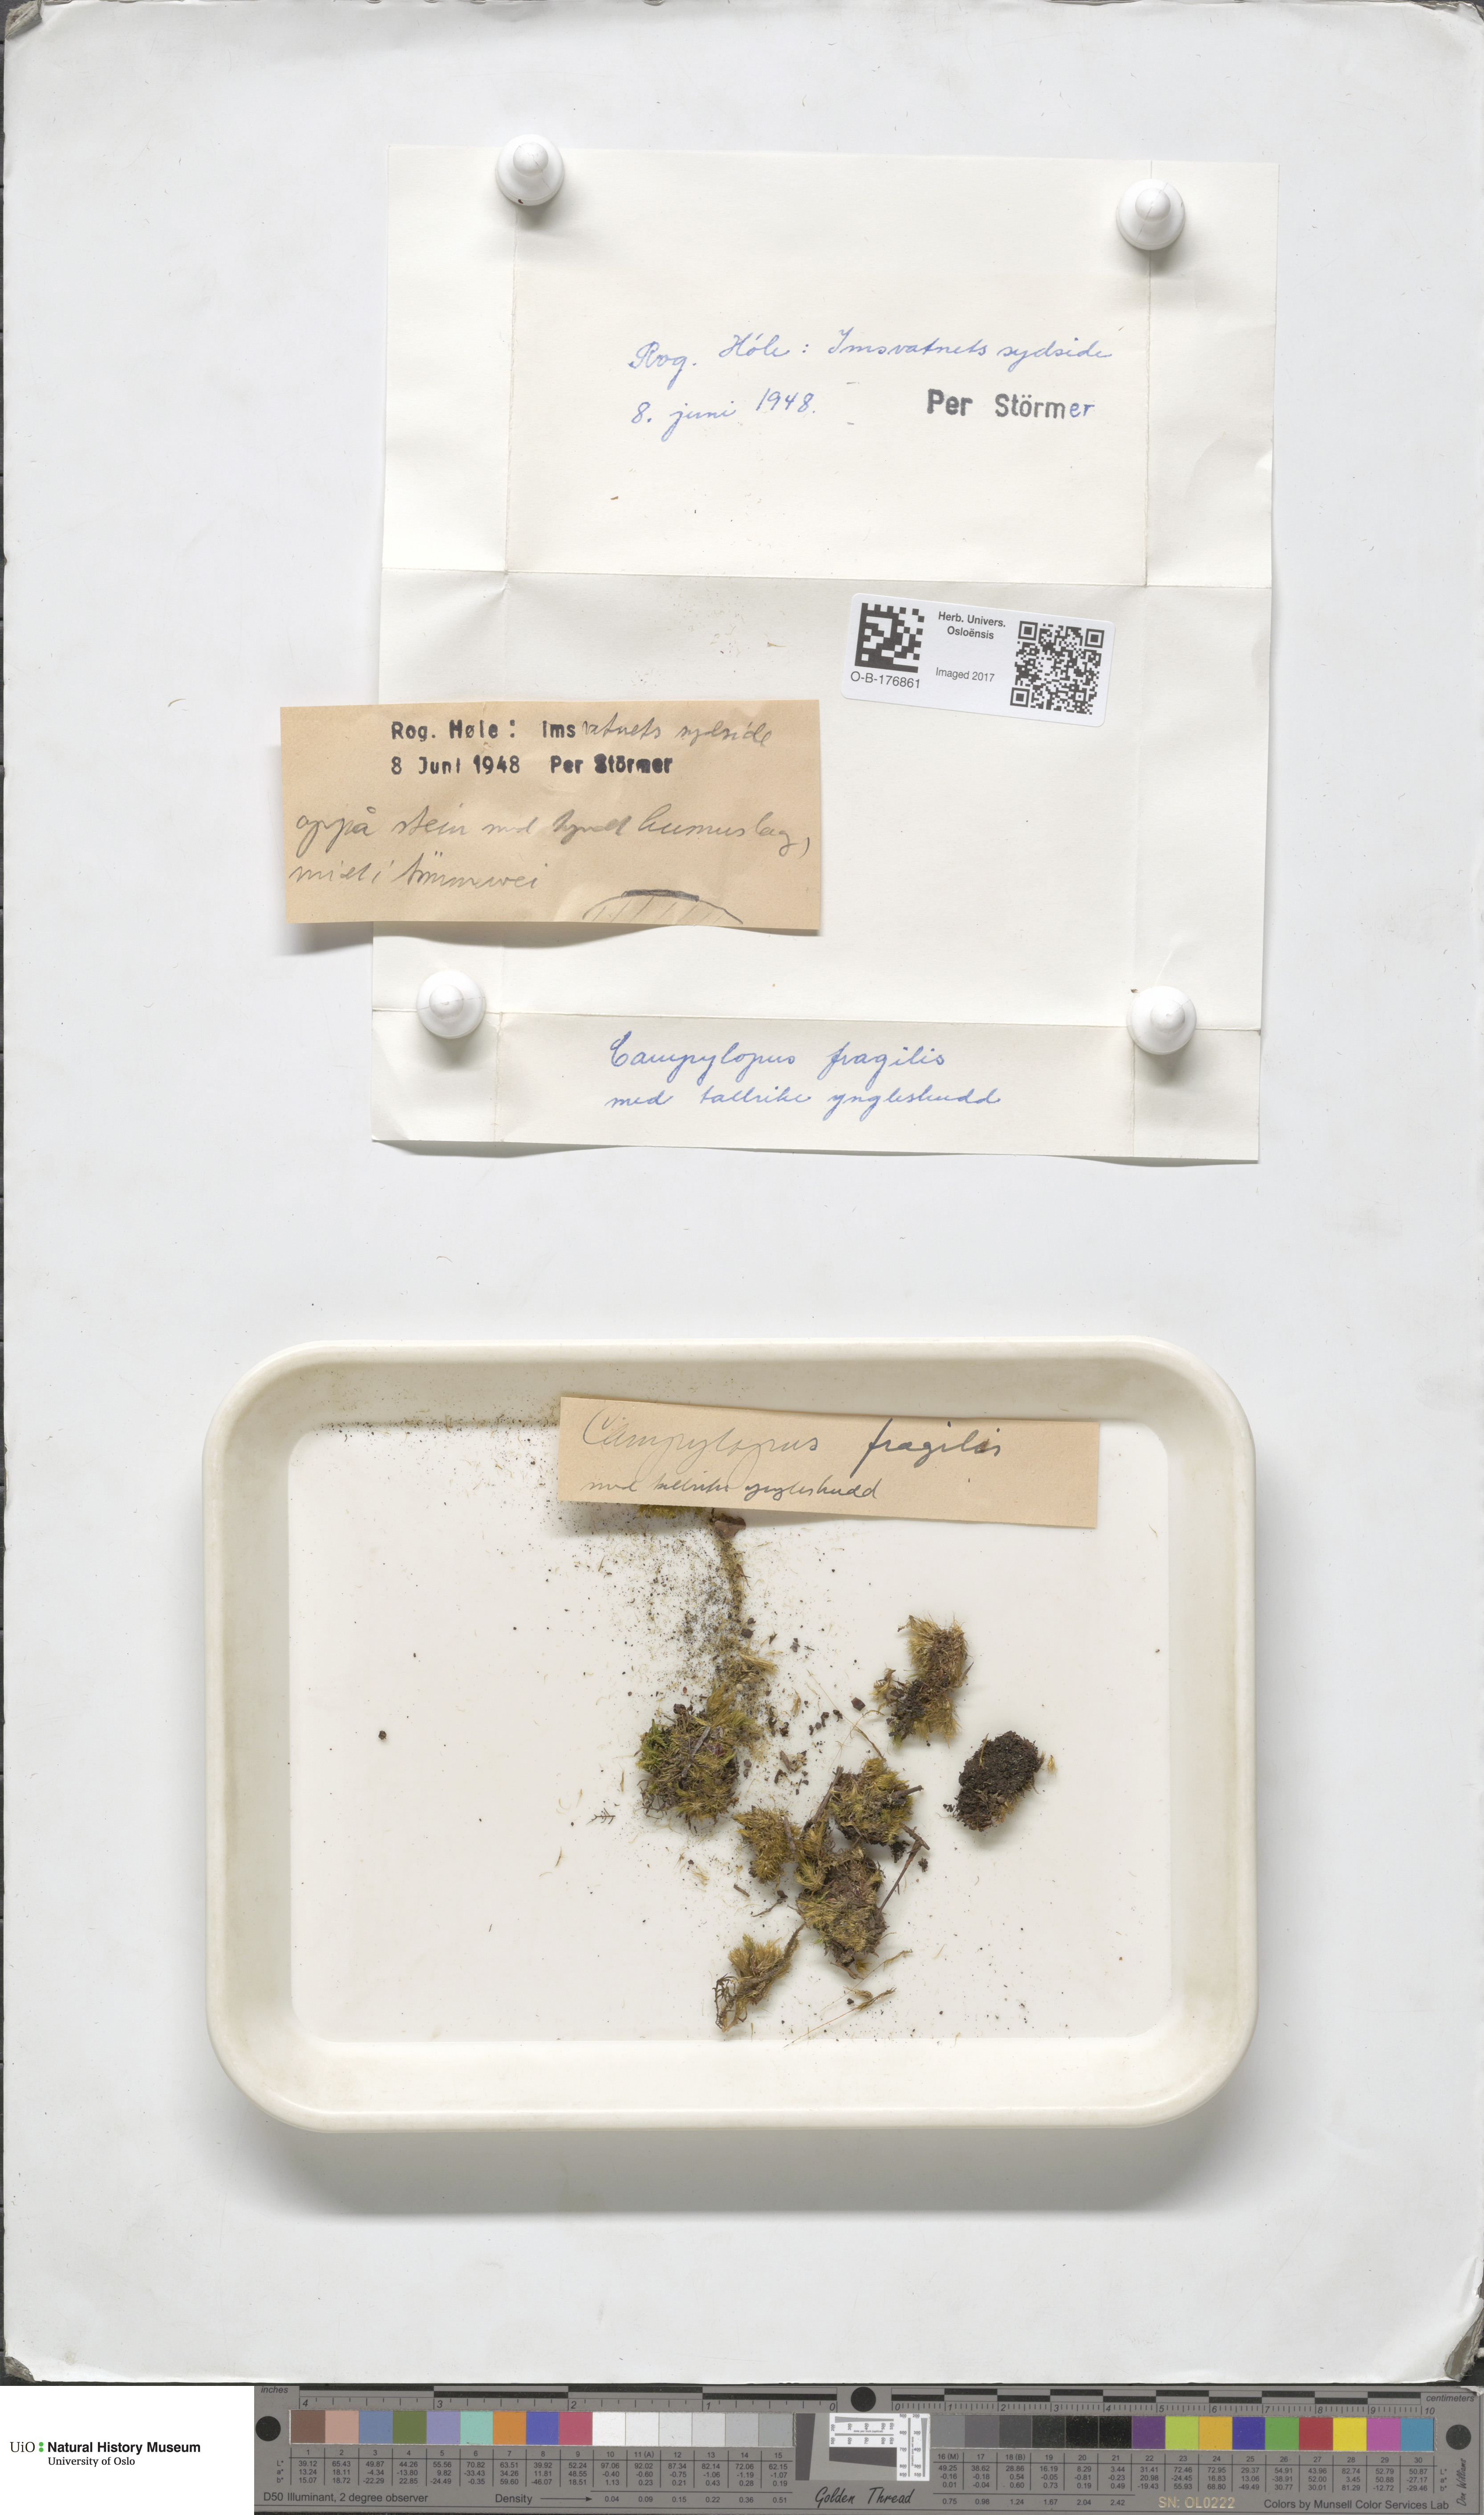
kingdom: Plantae
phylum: Bryophyta
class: Bryopsida
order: Dicranales
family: Leucobryaceae
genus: Campylopus
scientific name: Campylopus fragilis
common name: Brittle swan-neck moss
